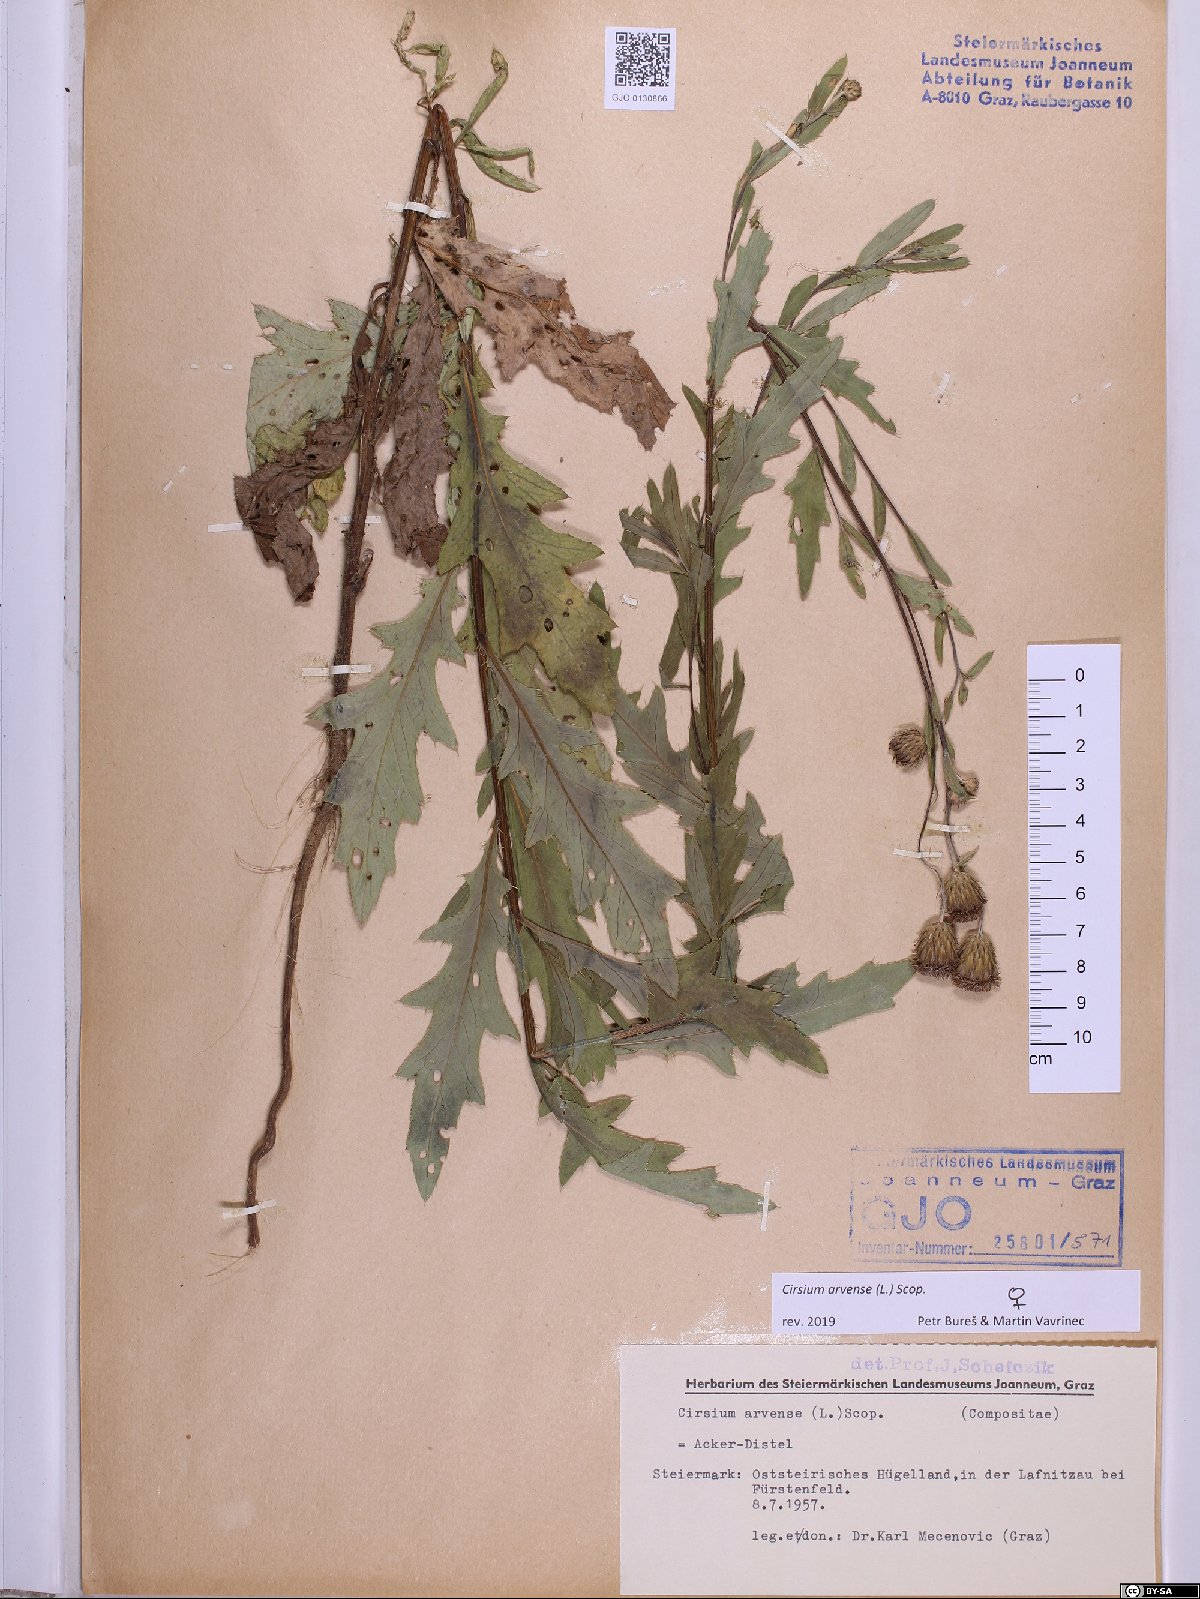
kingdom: Plantae
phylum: Tracheophyta
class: Magnoliopsida
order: Asterales
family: Asteraceae
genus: Cirsium
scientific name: Cirsium arvense
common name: Creeping thistle
